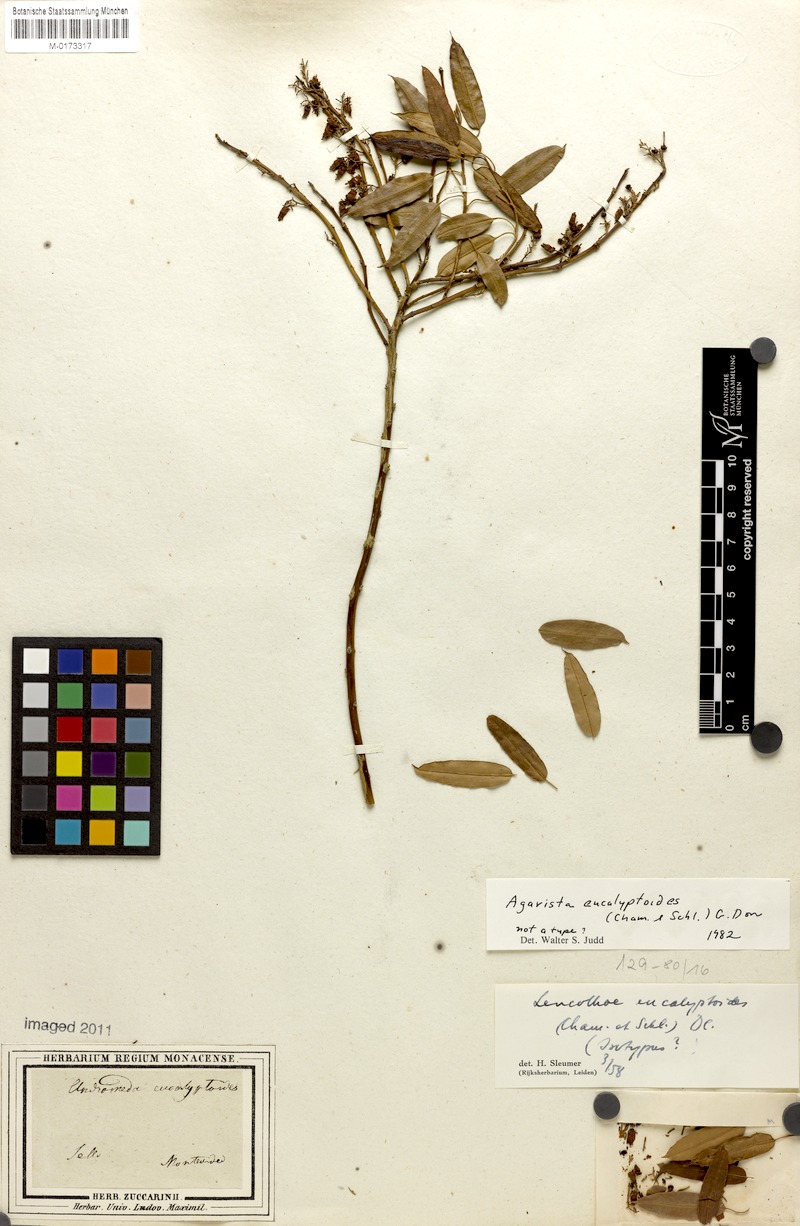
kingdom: Plantae
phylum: Tracheophyta
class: Magnoliopsida
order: Ericales
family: Ericaceae
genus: Agarista
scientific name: Agarista eucalyptoides
